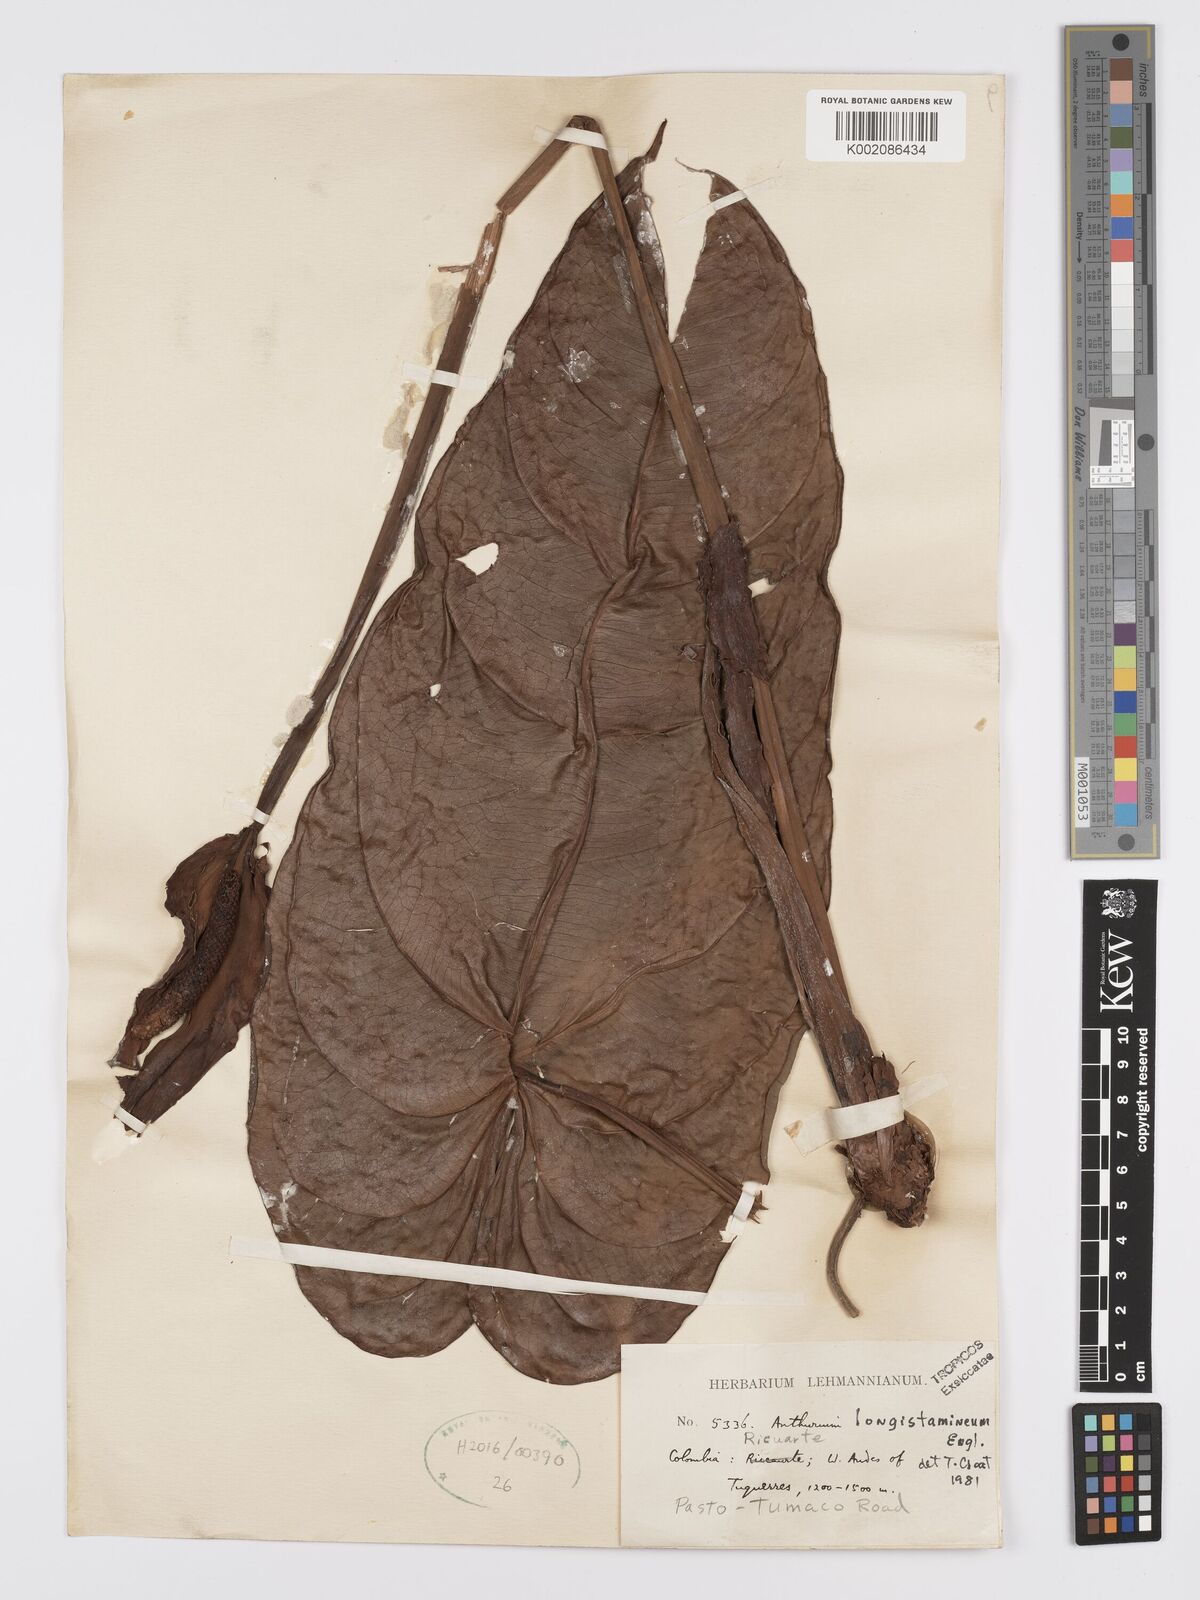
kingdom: Plantae
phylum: Tracheophyta
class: Liliopsida
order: Alismatales
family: Araceae
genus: Anthurium
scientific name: Anthurium longistamineum
